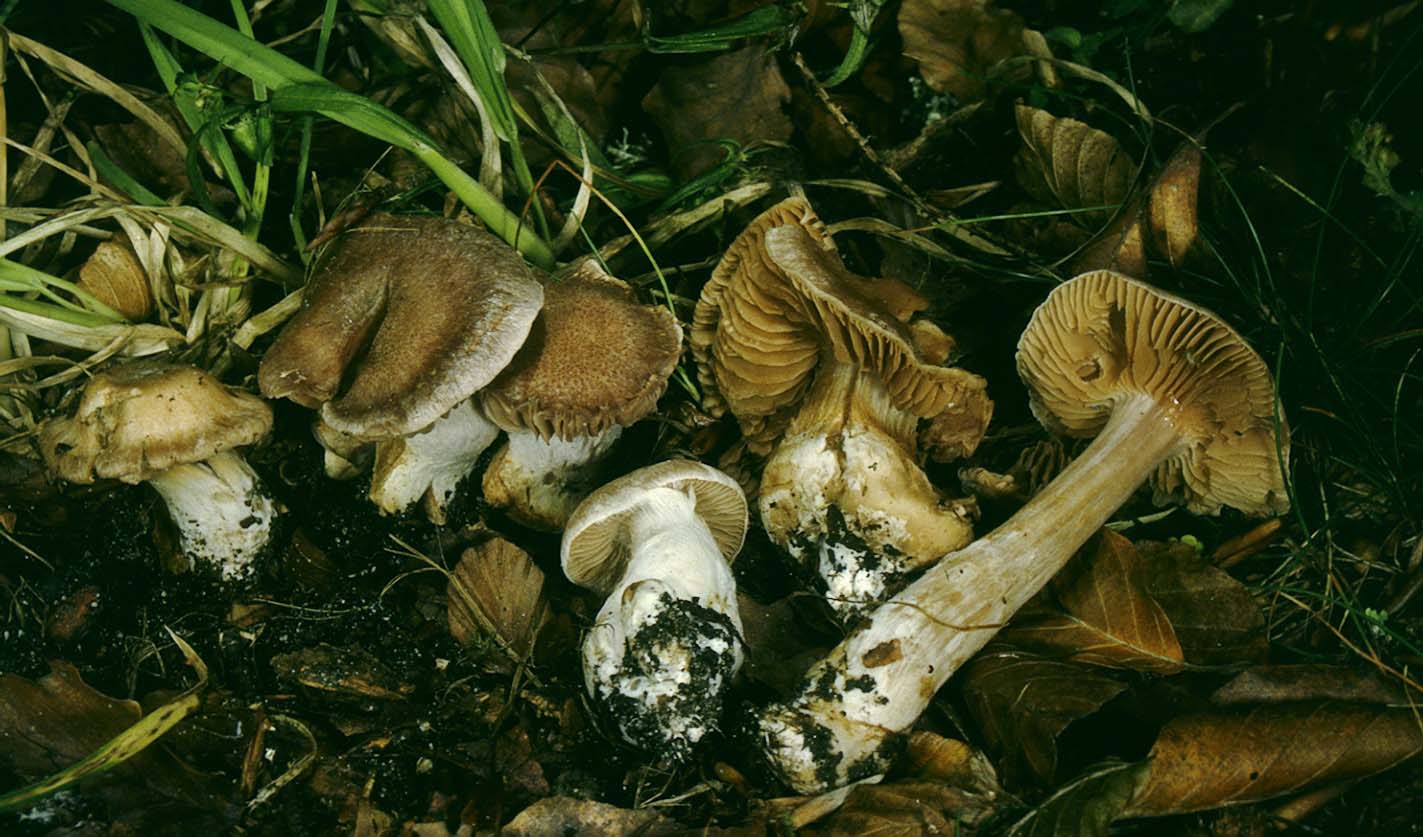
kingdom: Fungi
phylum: Basidiomycota
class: Agaricomycetes
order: Agaricales
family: Cortinariaceae
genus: Cortinarius
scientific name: Cortinarius phaeosmus
